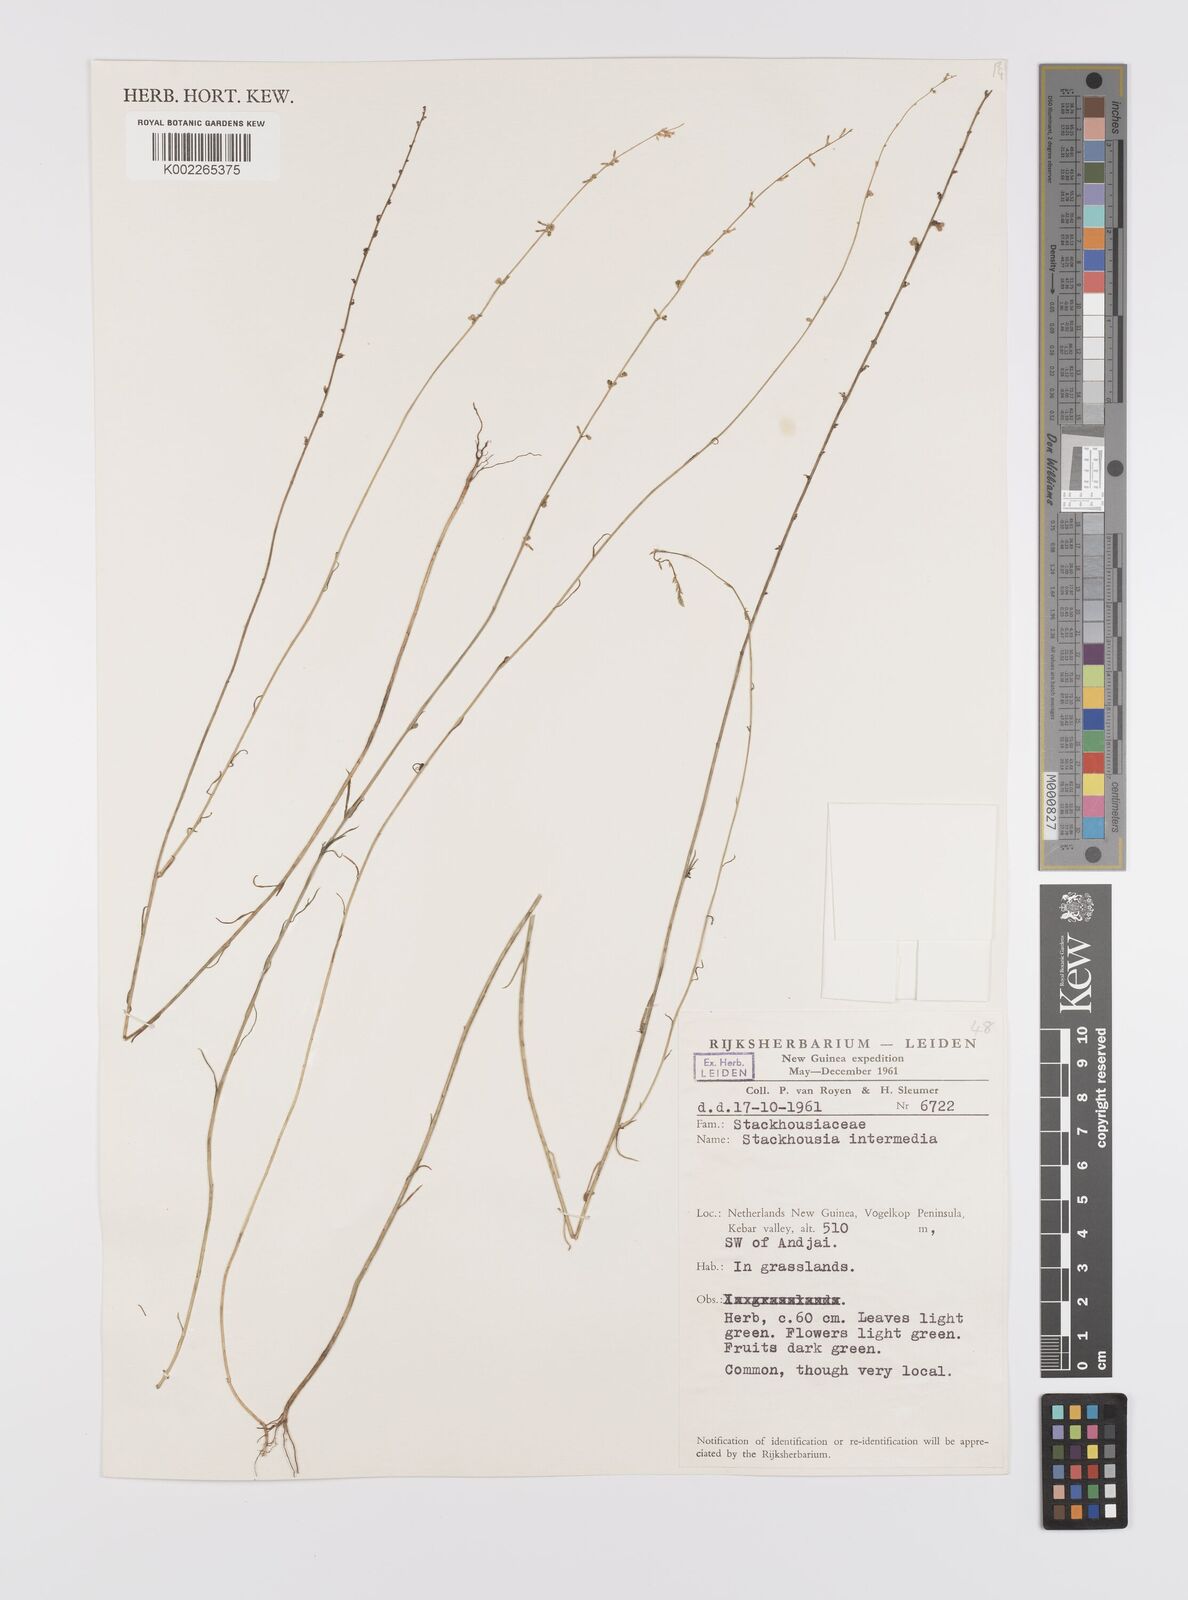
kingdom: Plantae
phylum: Tracheophyta
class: Magnoliopsida
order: Celastrales
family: Celastraceae
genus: Stackhousia
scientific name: Stackhousia intermedia
